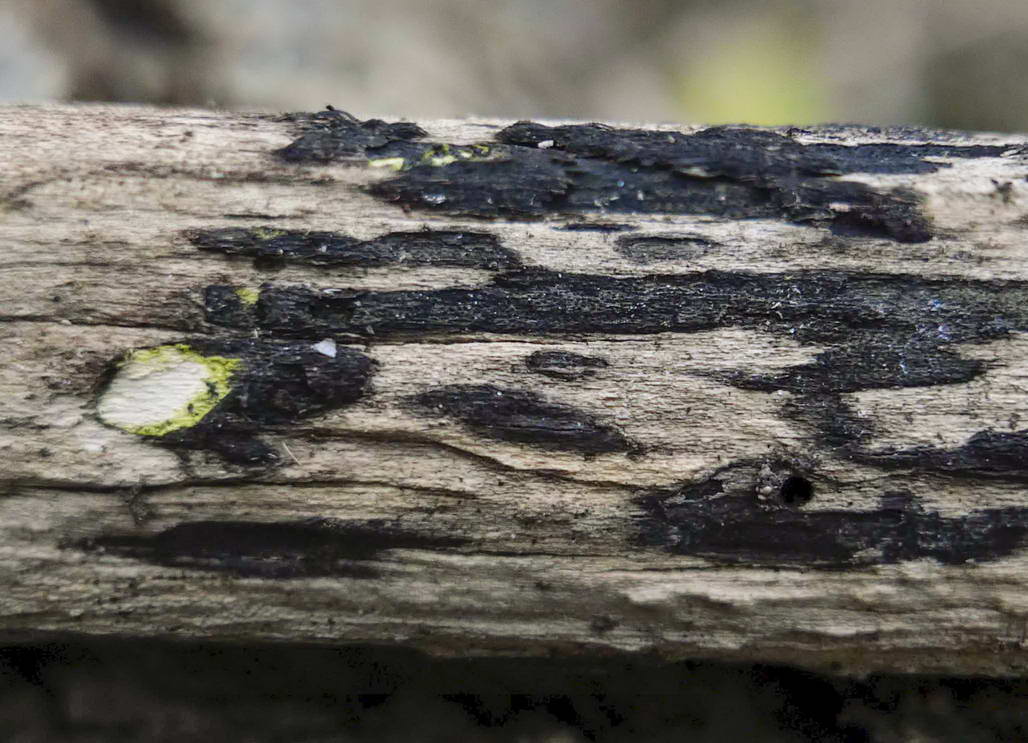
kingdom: Fungi
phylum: Ascomycota
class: Sordariomycetes
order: Xylariales
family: Diatrypaceae
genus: Eutypa
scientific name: Eutypa flavovirens
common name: grønkødet kulskorpe
